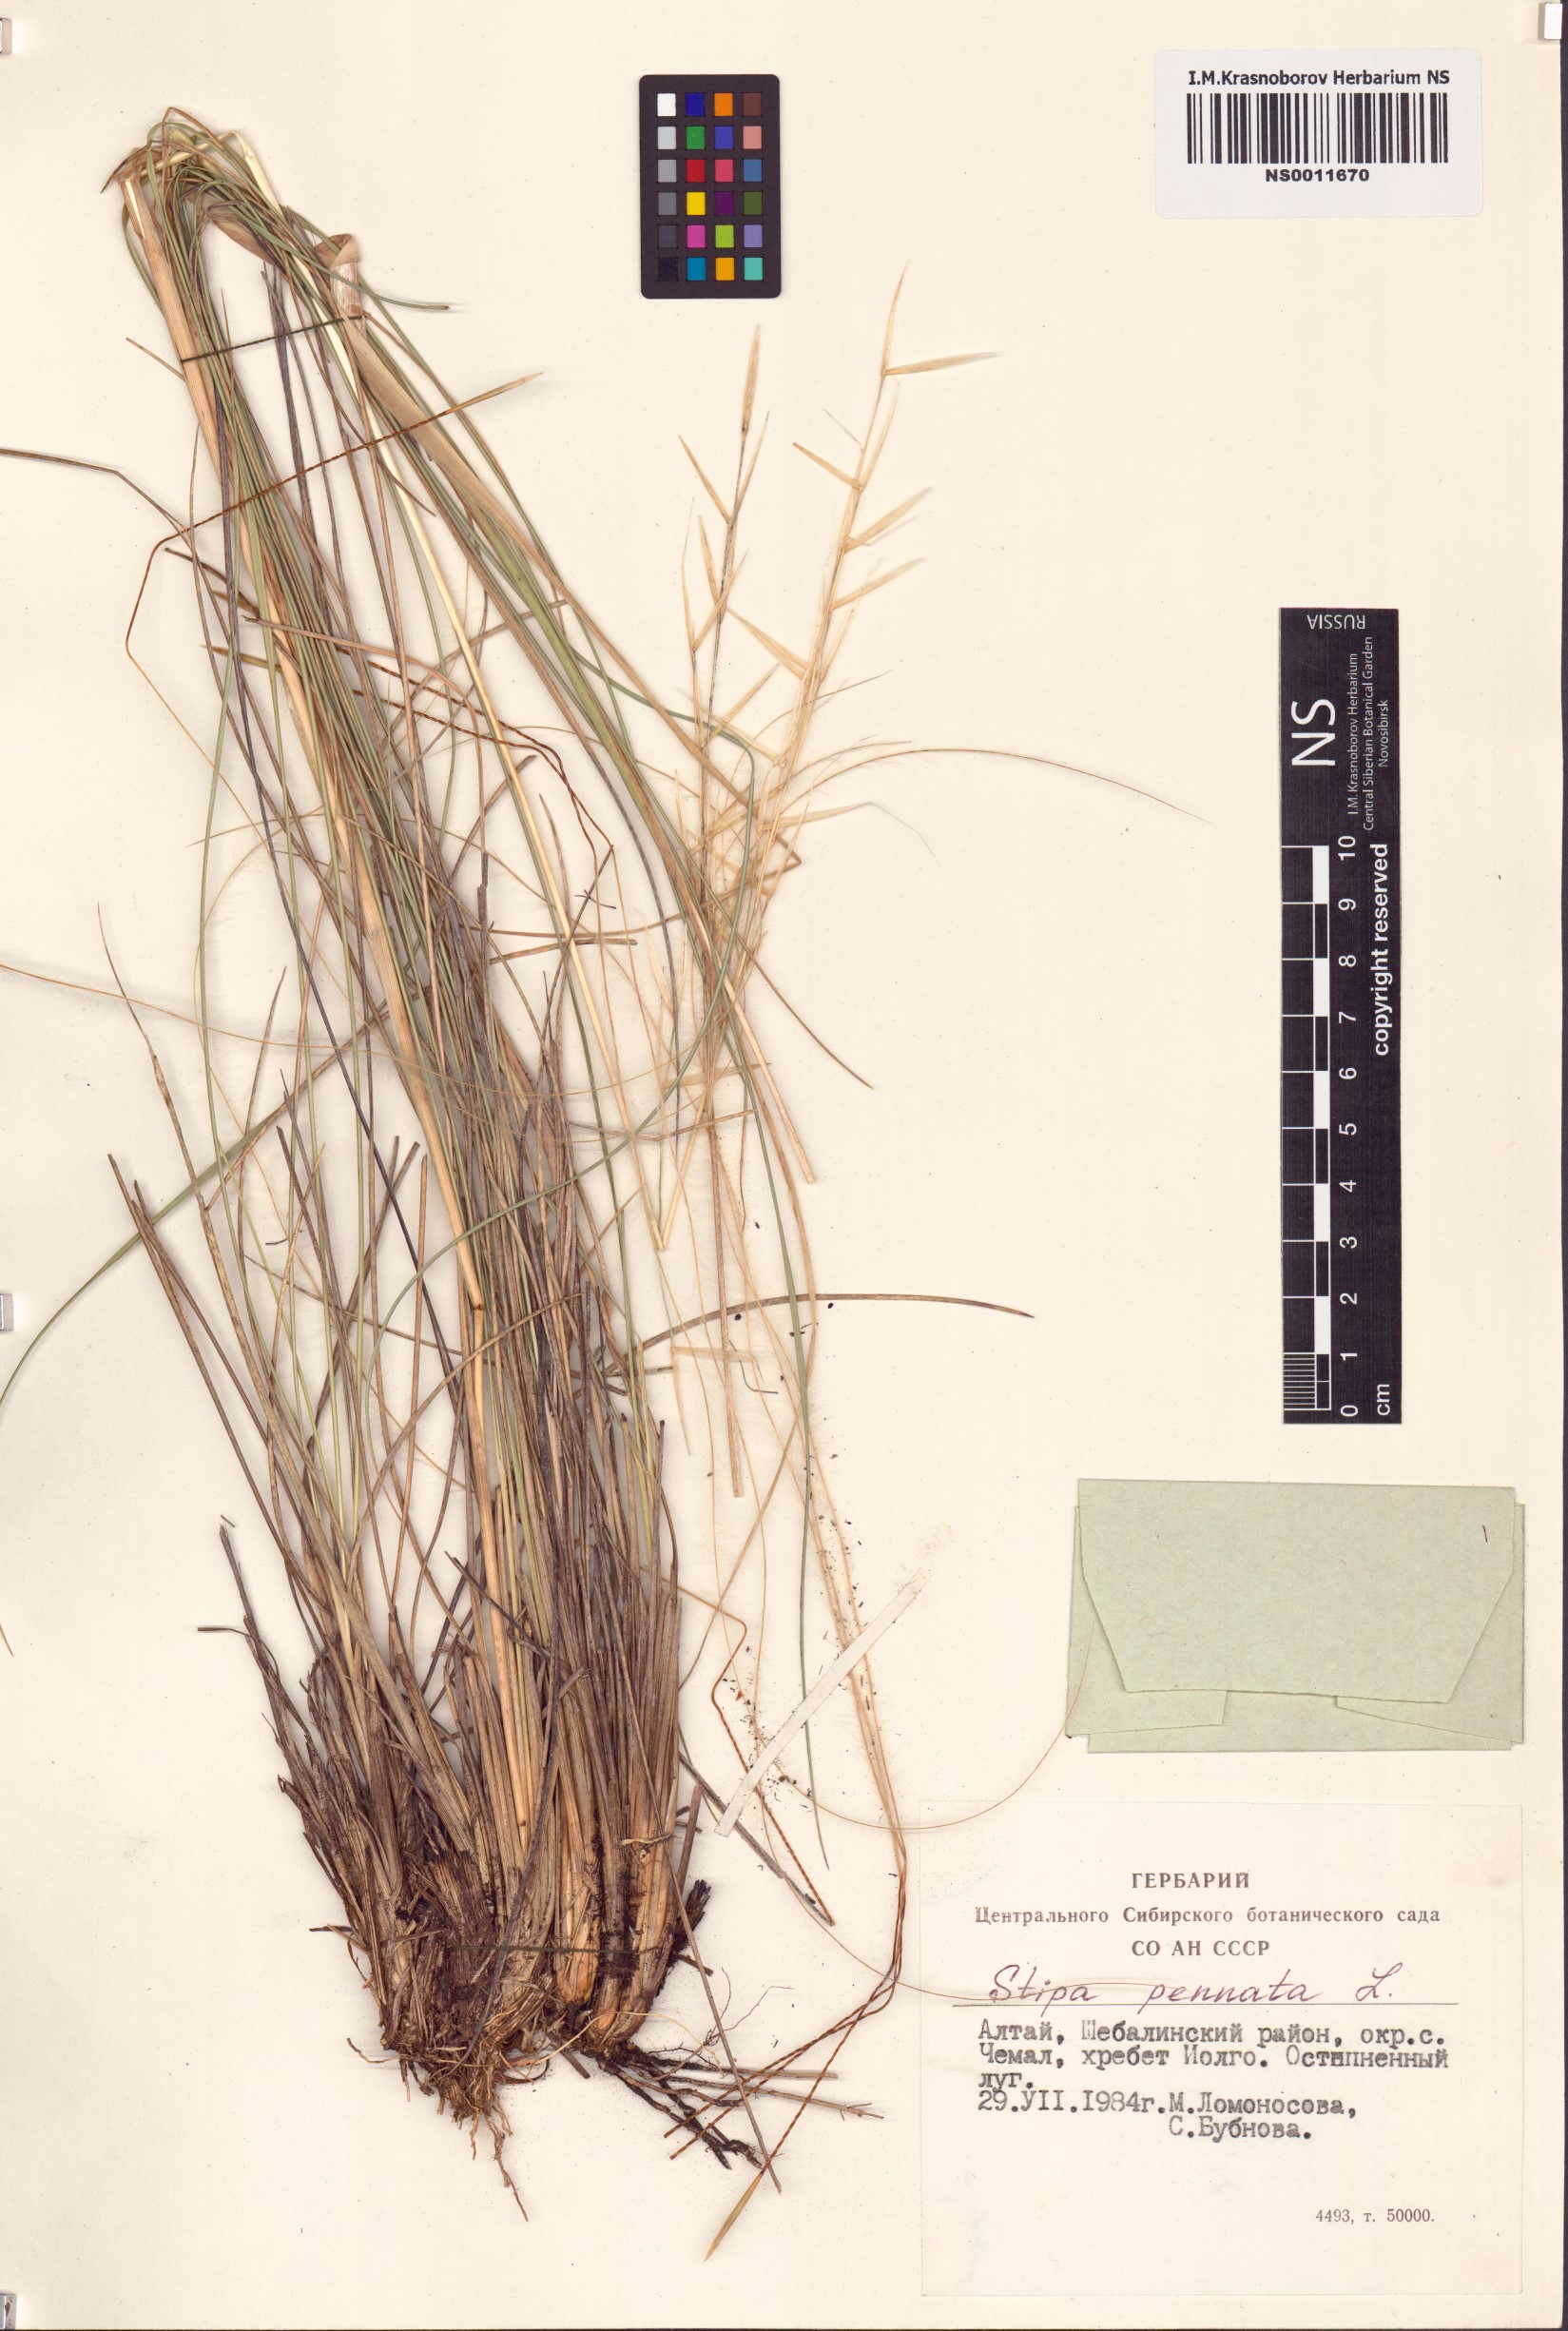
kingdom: Plantae
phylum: Tracheophyta
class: Liliopsida
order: Poales
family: Poaceae
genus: Stipa
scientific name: Stipa pennata
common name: European feather grass
